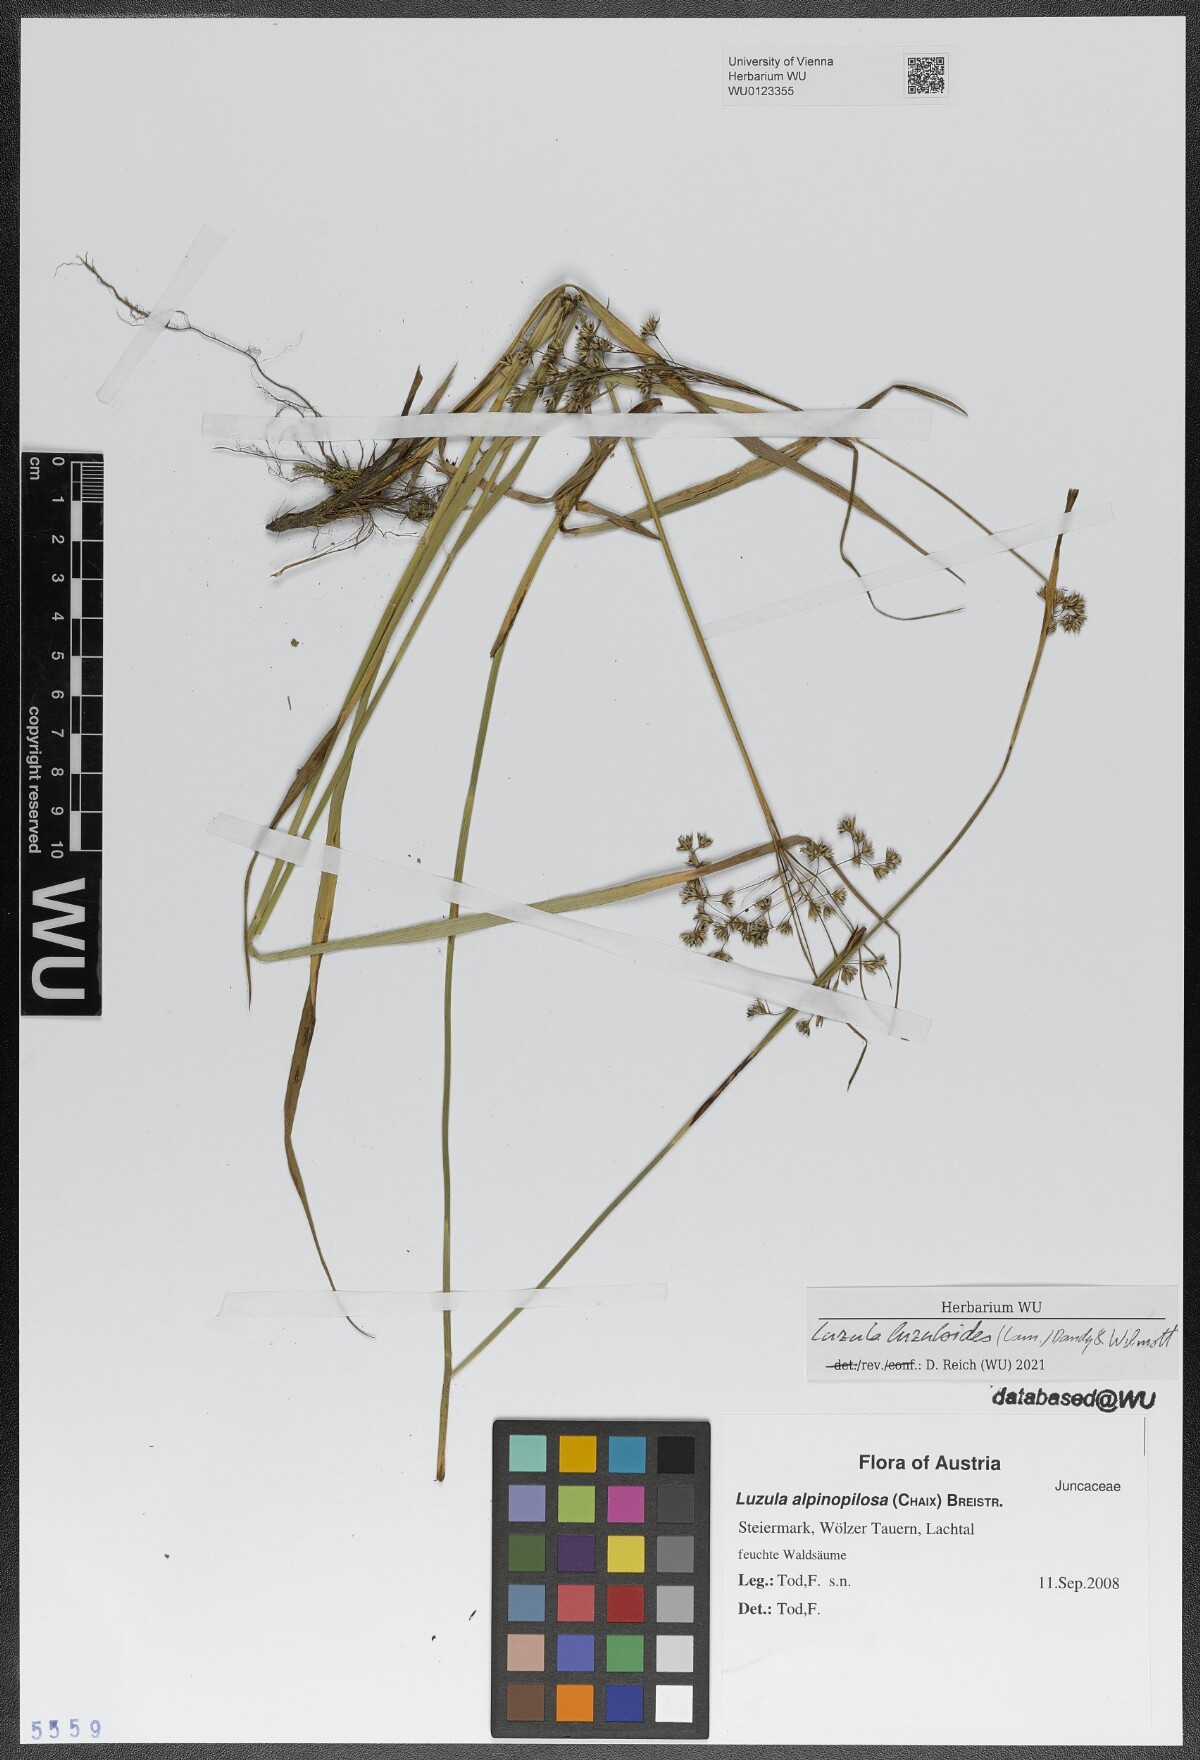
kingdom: Plantae
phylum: Tracheophyta
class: Liliopsida
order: Poales
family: Juncaceae
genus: Luzula
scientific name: Luzula luzuloides
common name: White wood-rush
